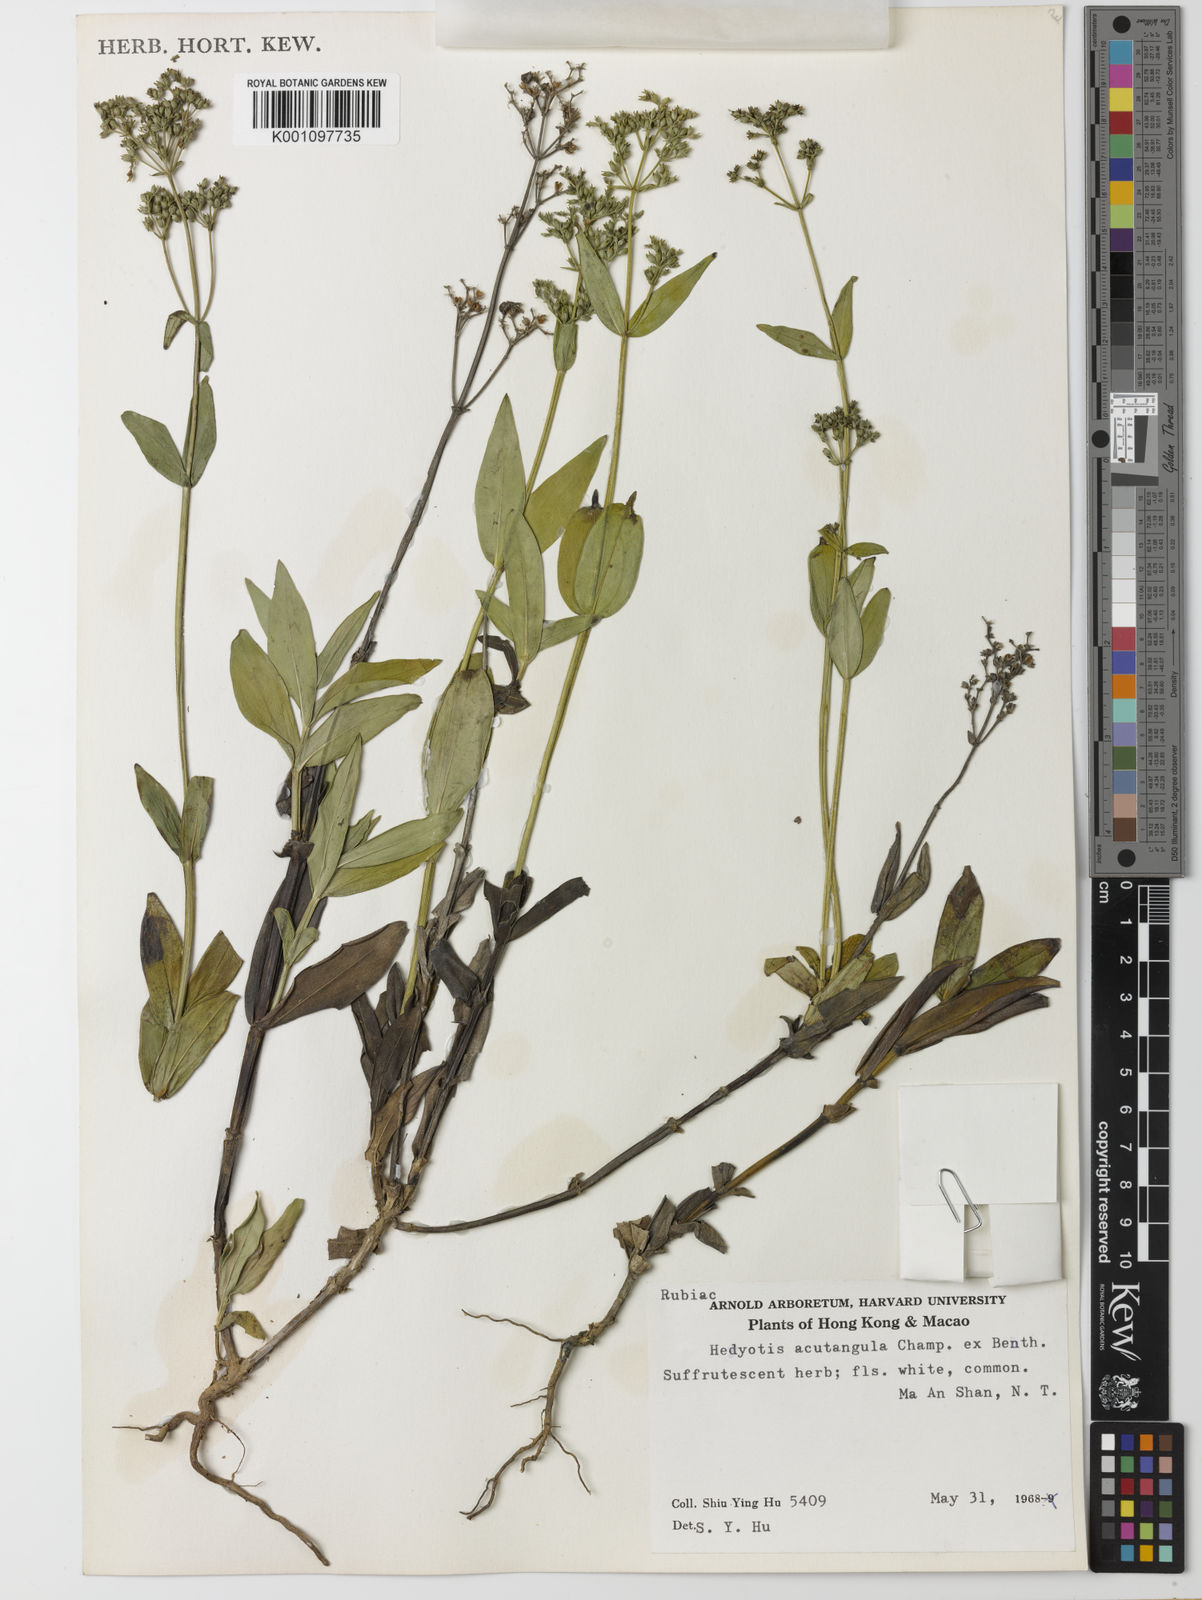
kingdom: Plantae
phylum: Tracheophyta
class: Magnoliopsida
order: Gentianales
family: Rubiaceae
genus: Hedyotis
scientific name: Hedyotis acutangula
